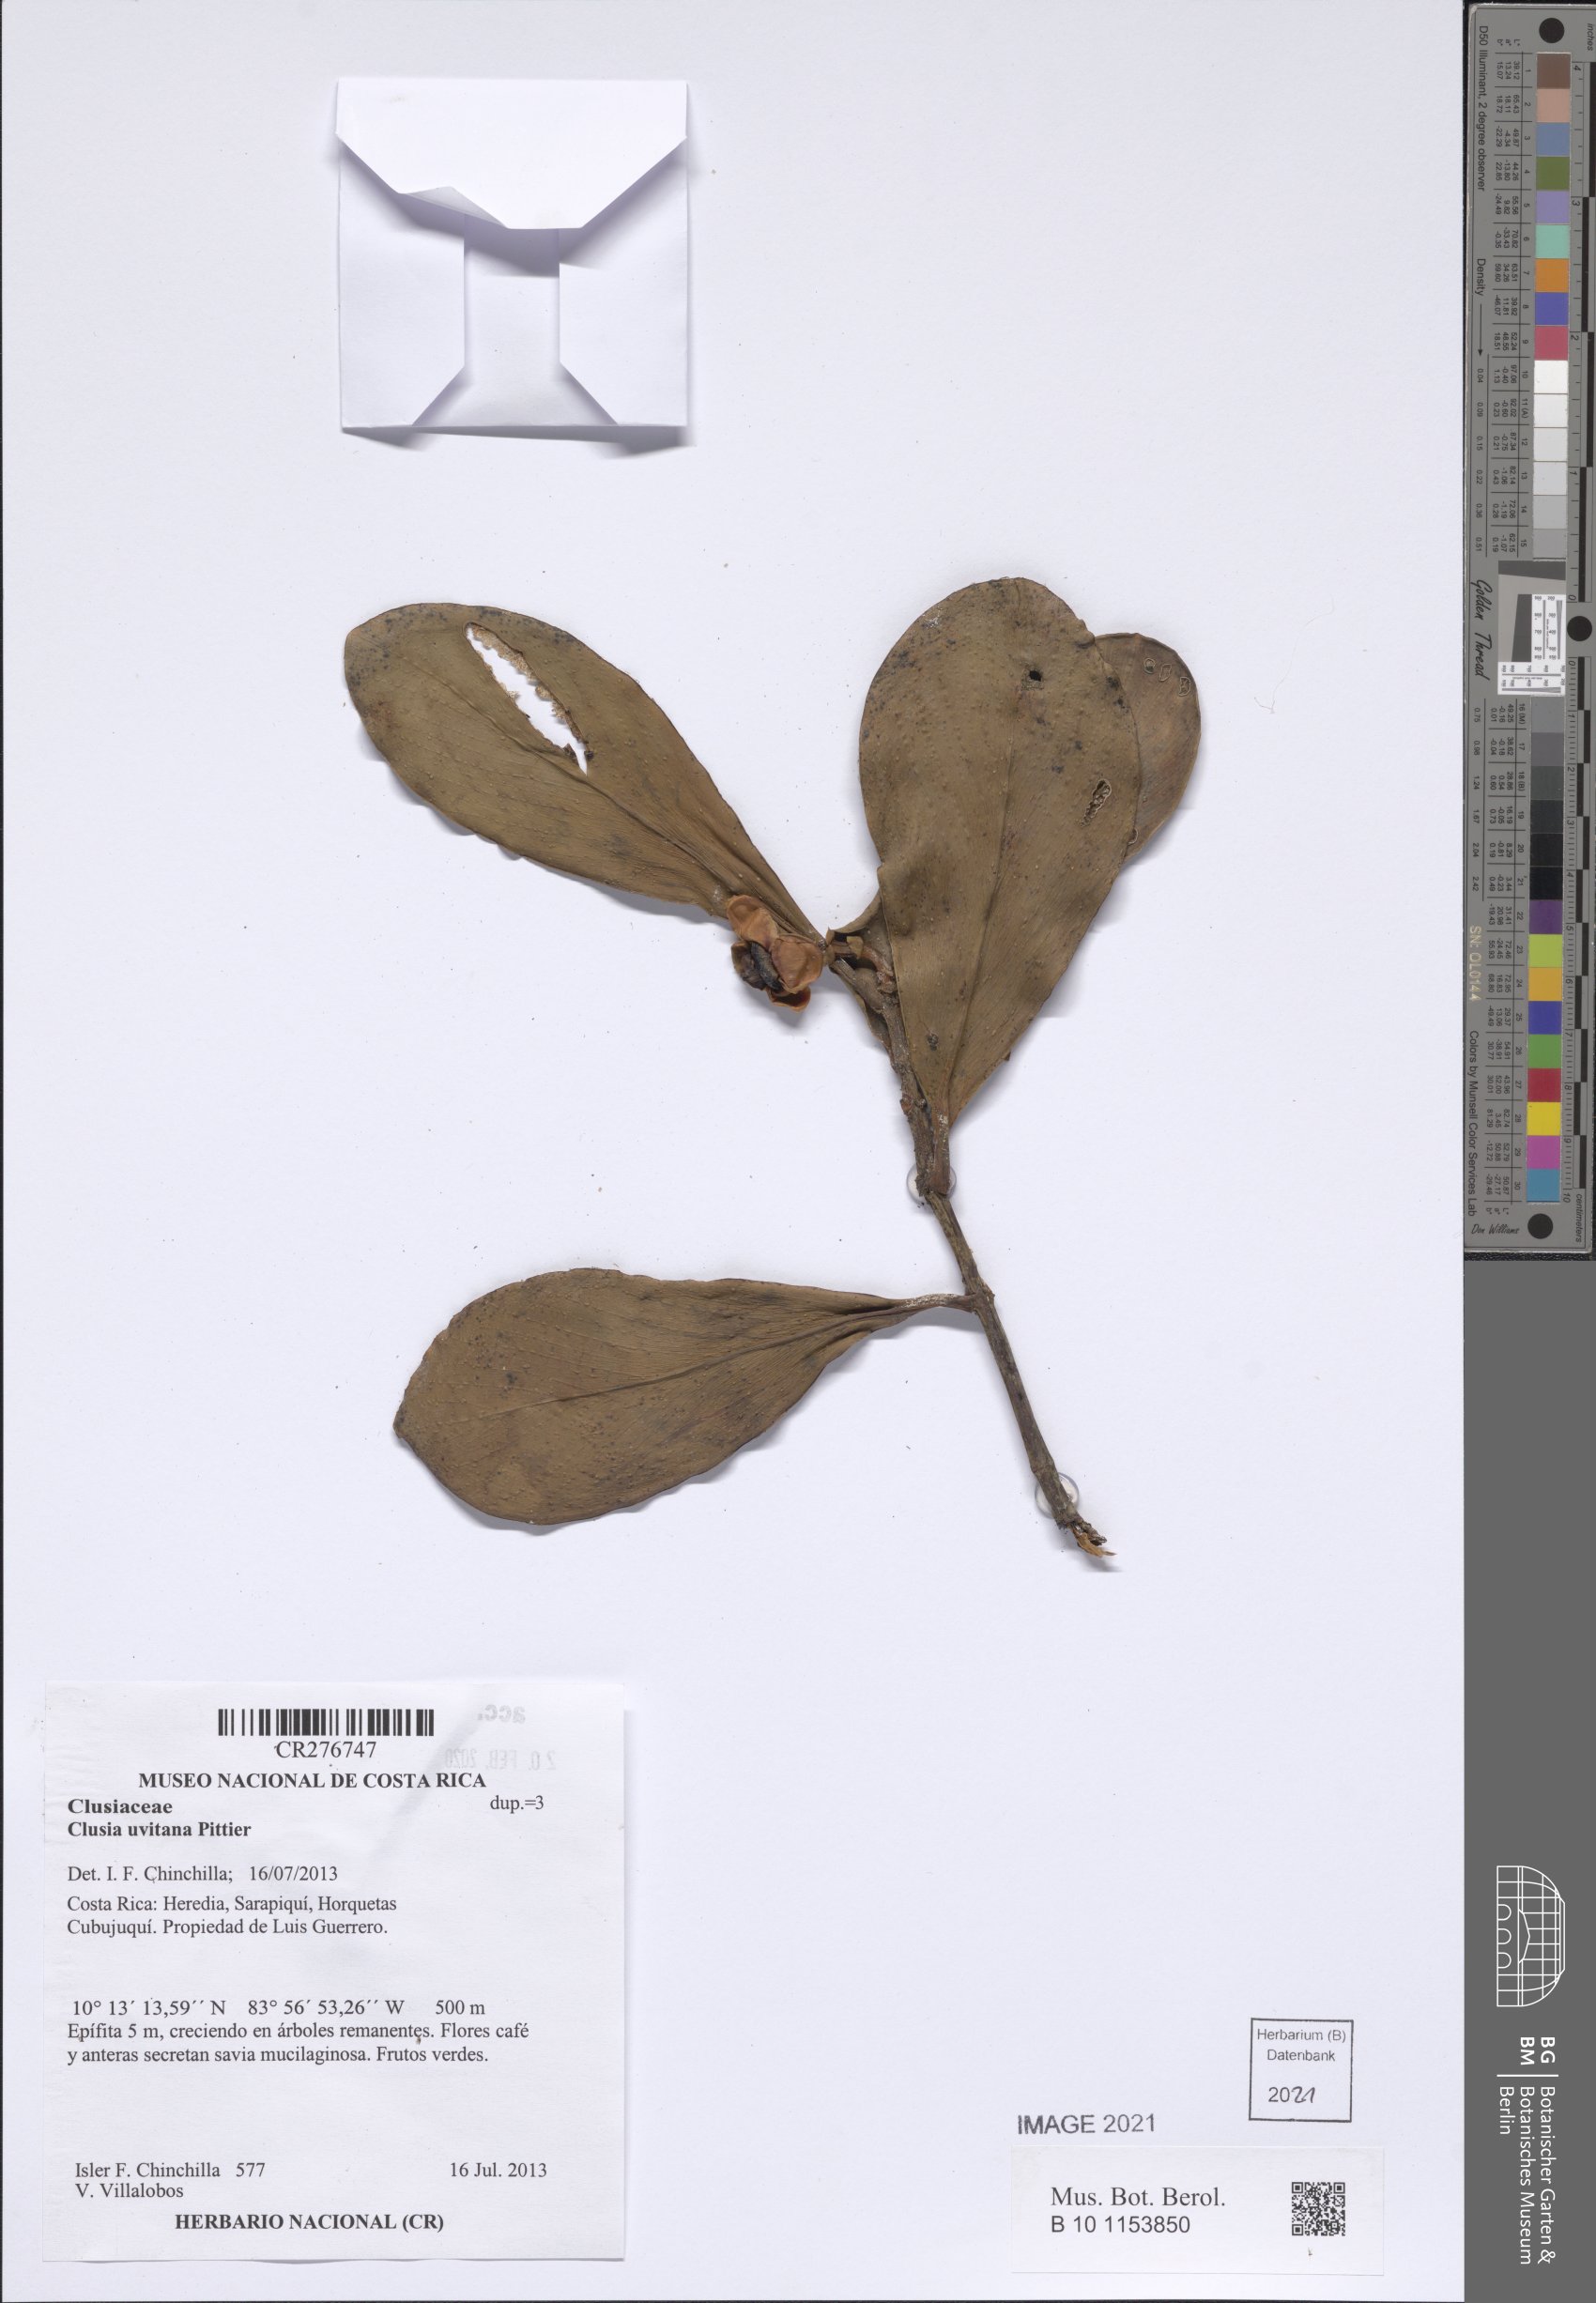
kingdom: Plantae
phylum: Tracheophyta
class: Magnoliopsida
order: Malpighiales
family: Clusiaceae
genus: Clusia
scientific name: Clusia uvitana
